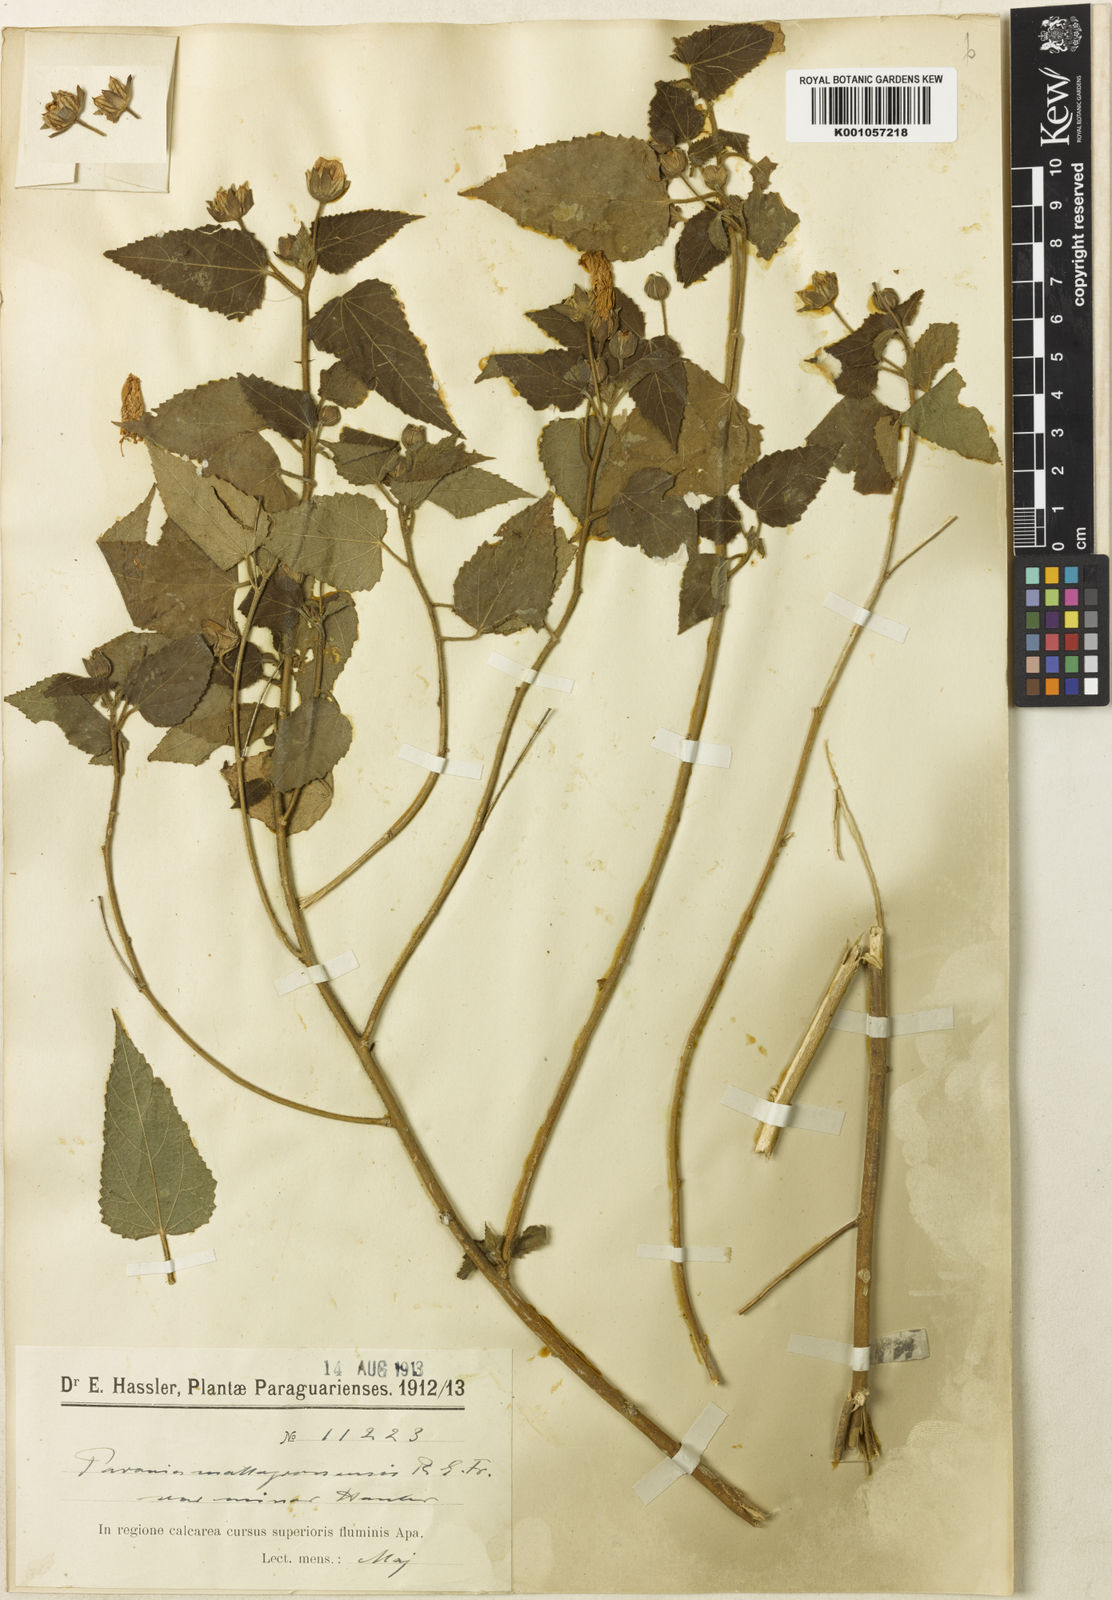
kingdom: Plantae
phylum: Tracheophyta
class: Magnoliopsida
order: Malvales
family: Malvaceae
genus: Pavonia
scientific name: Pavonia sapucayensis
